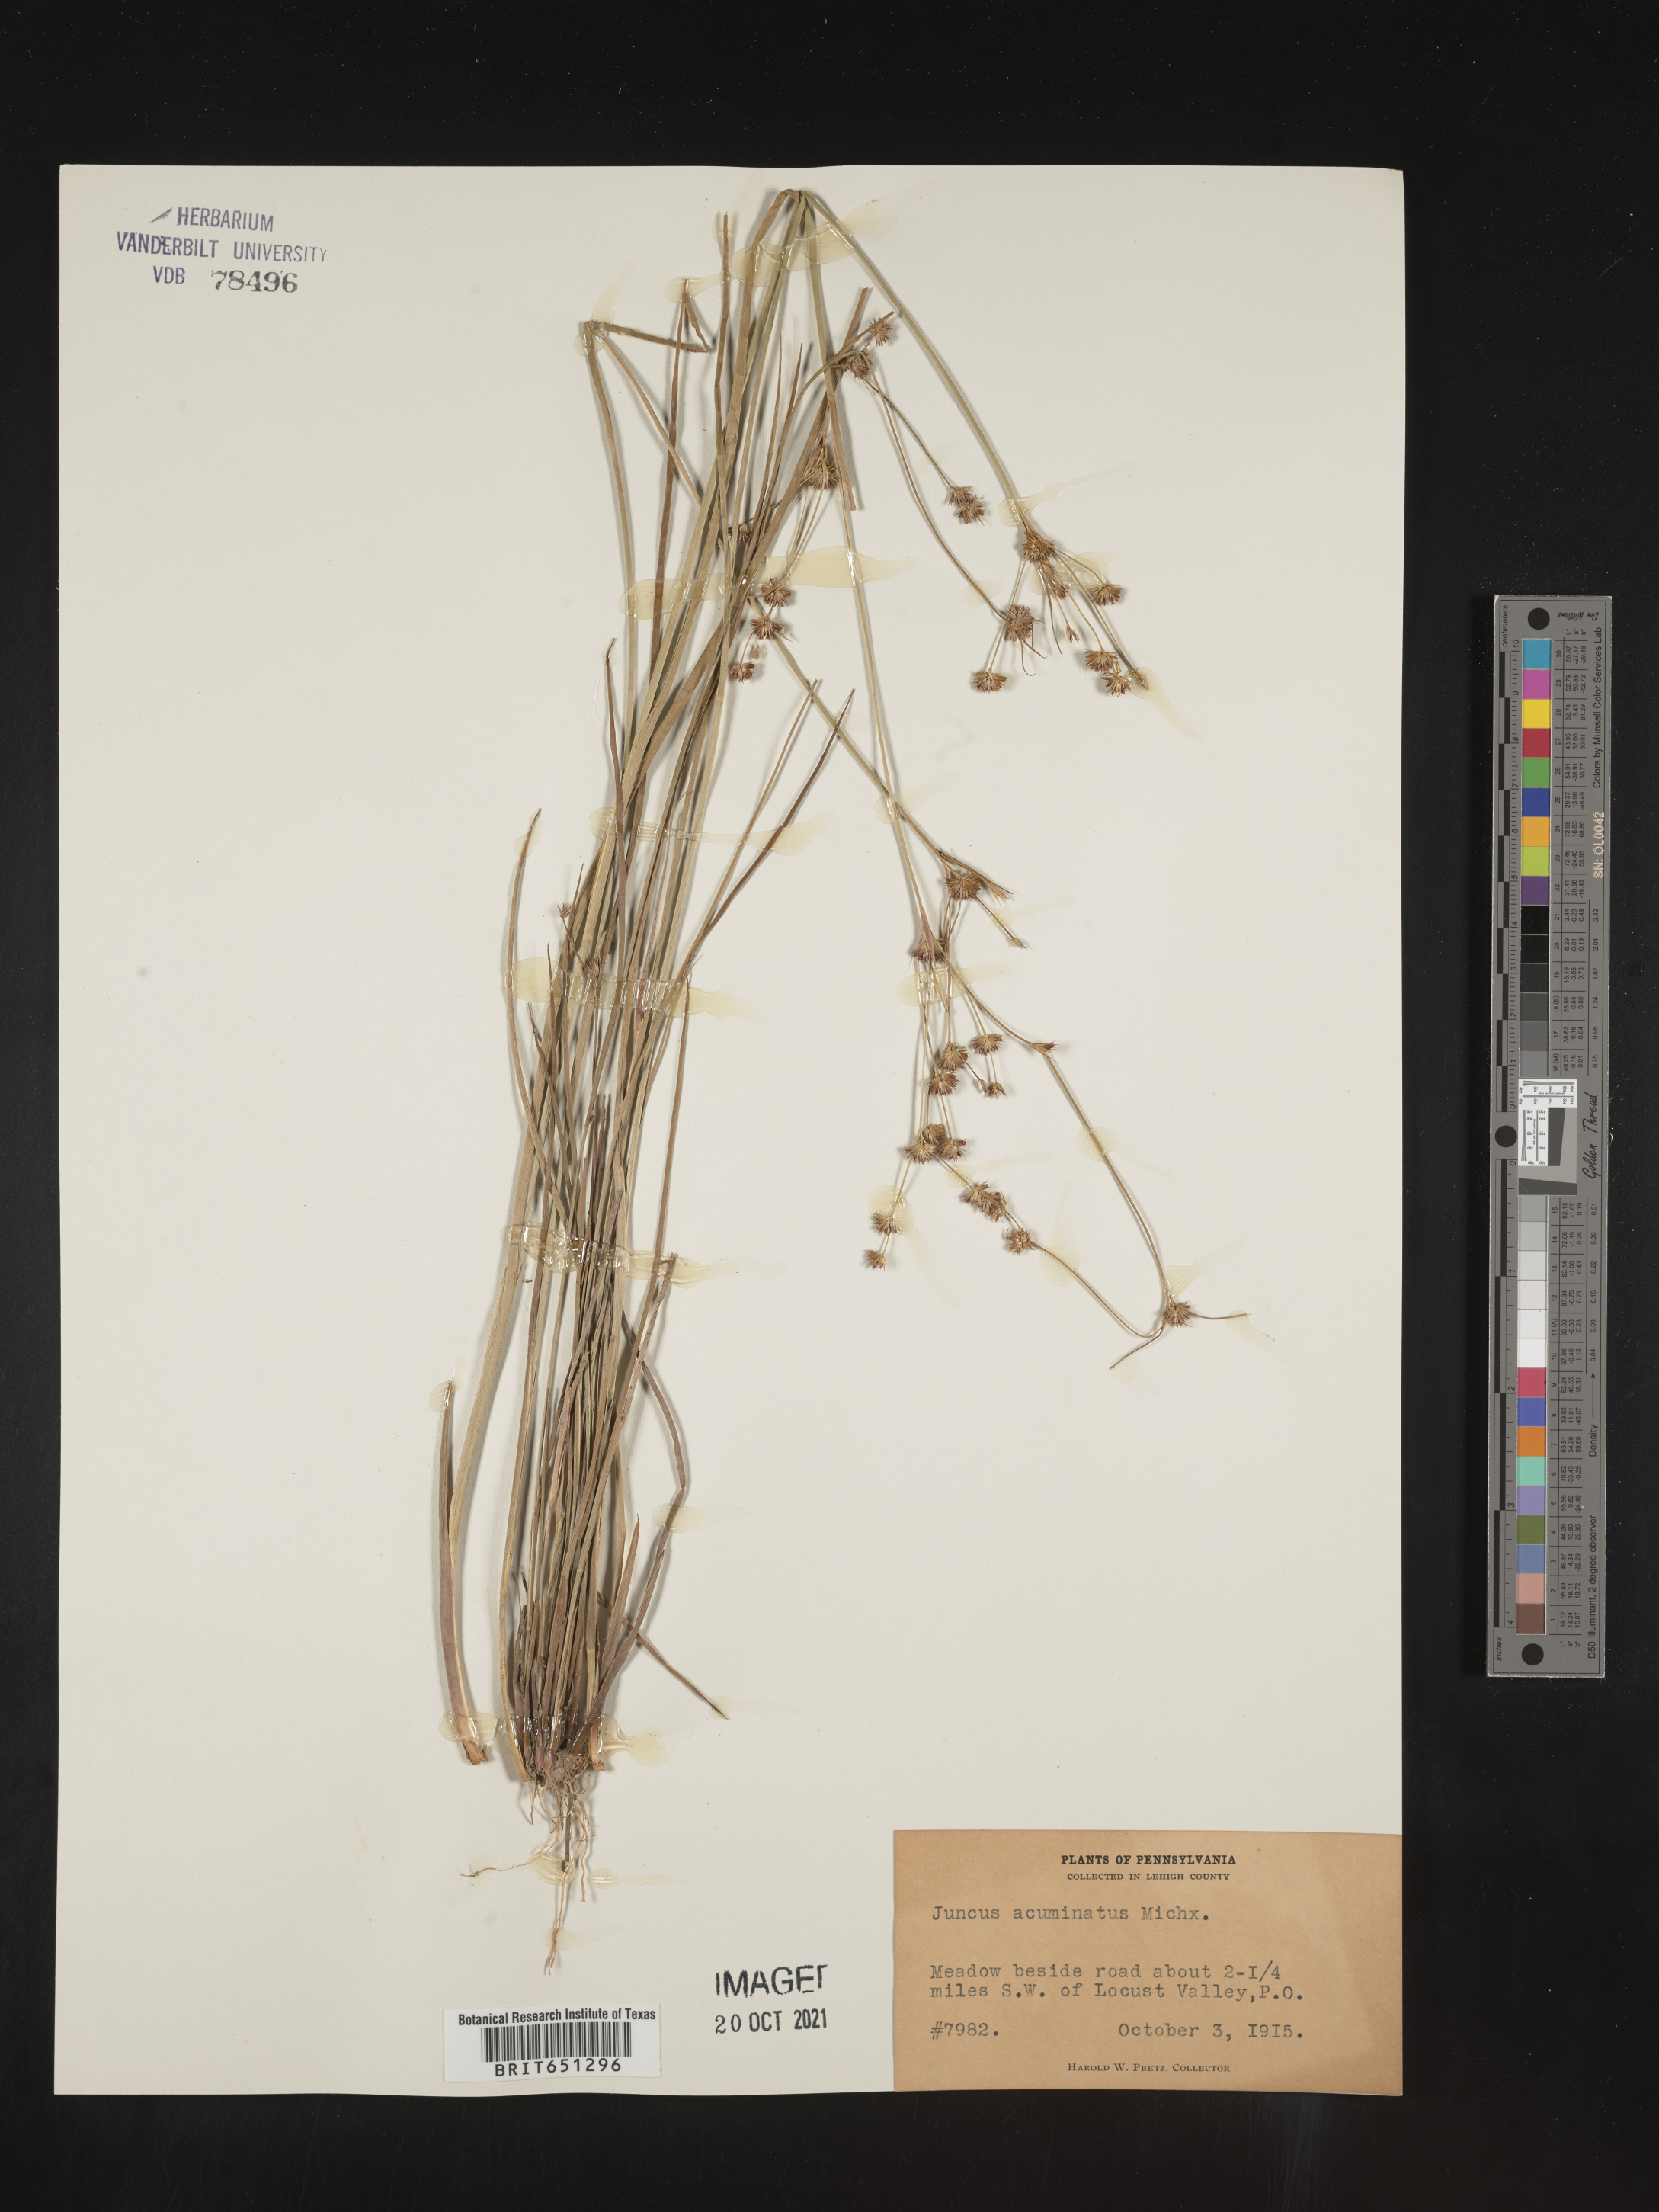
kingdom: Plantae
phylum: Tracheophyta
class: Liliopsida
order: Poales
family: Juncaceae
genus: Juncus
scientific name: Juncus acuminatus
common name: Knotty-leaved rush
